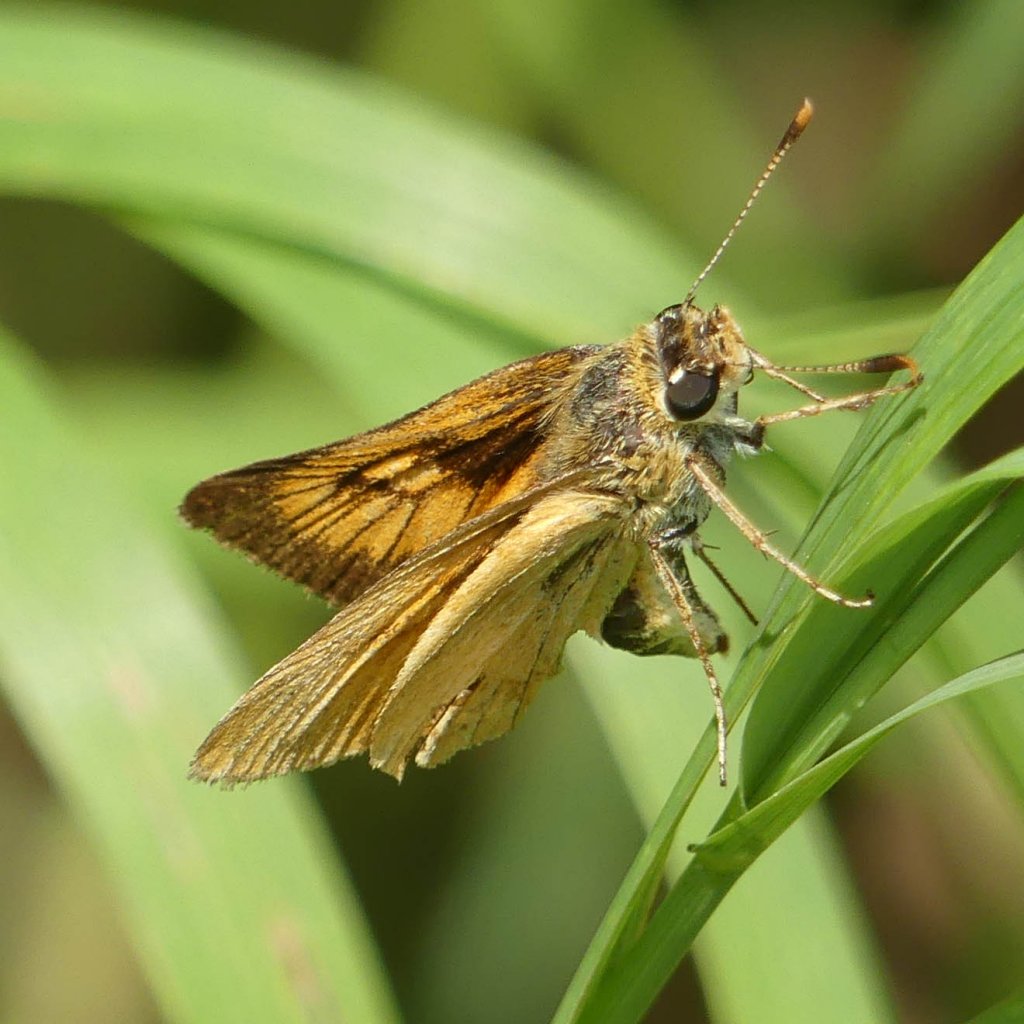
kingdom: Animalia
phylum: Arthropoda
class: Insecta
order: Lepidoptera
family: Hesperiidae
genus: Atrytone
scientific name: Atrytone delaware
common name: Delaware Skipper
